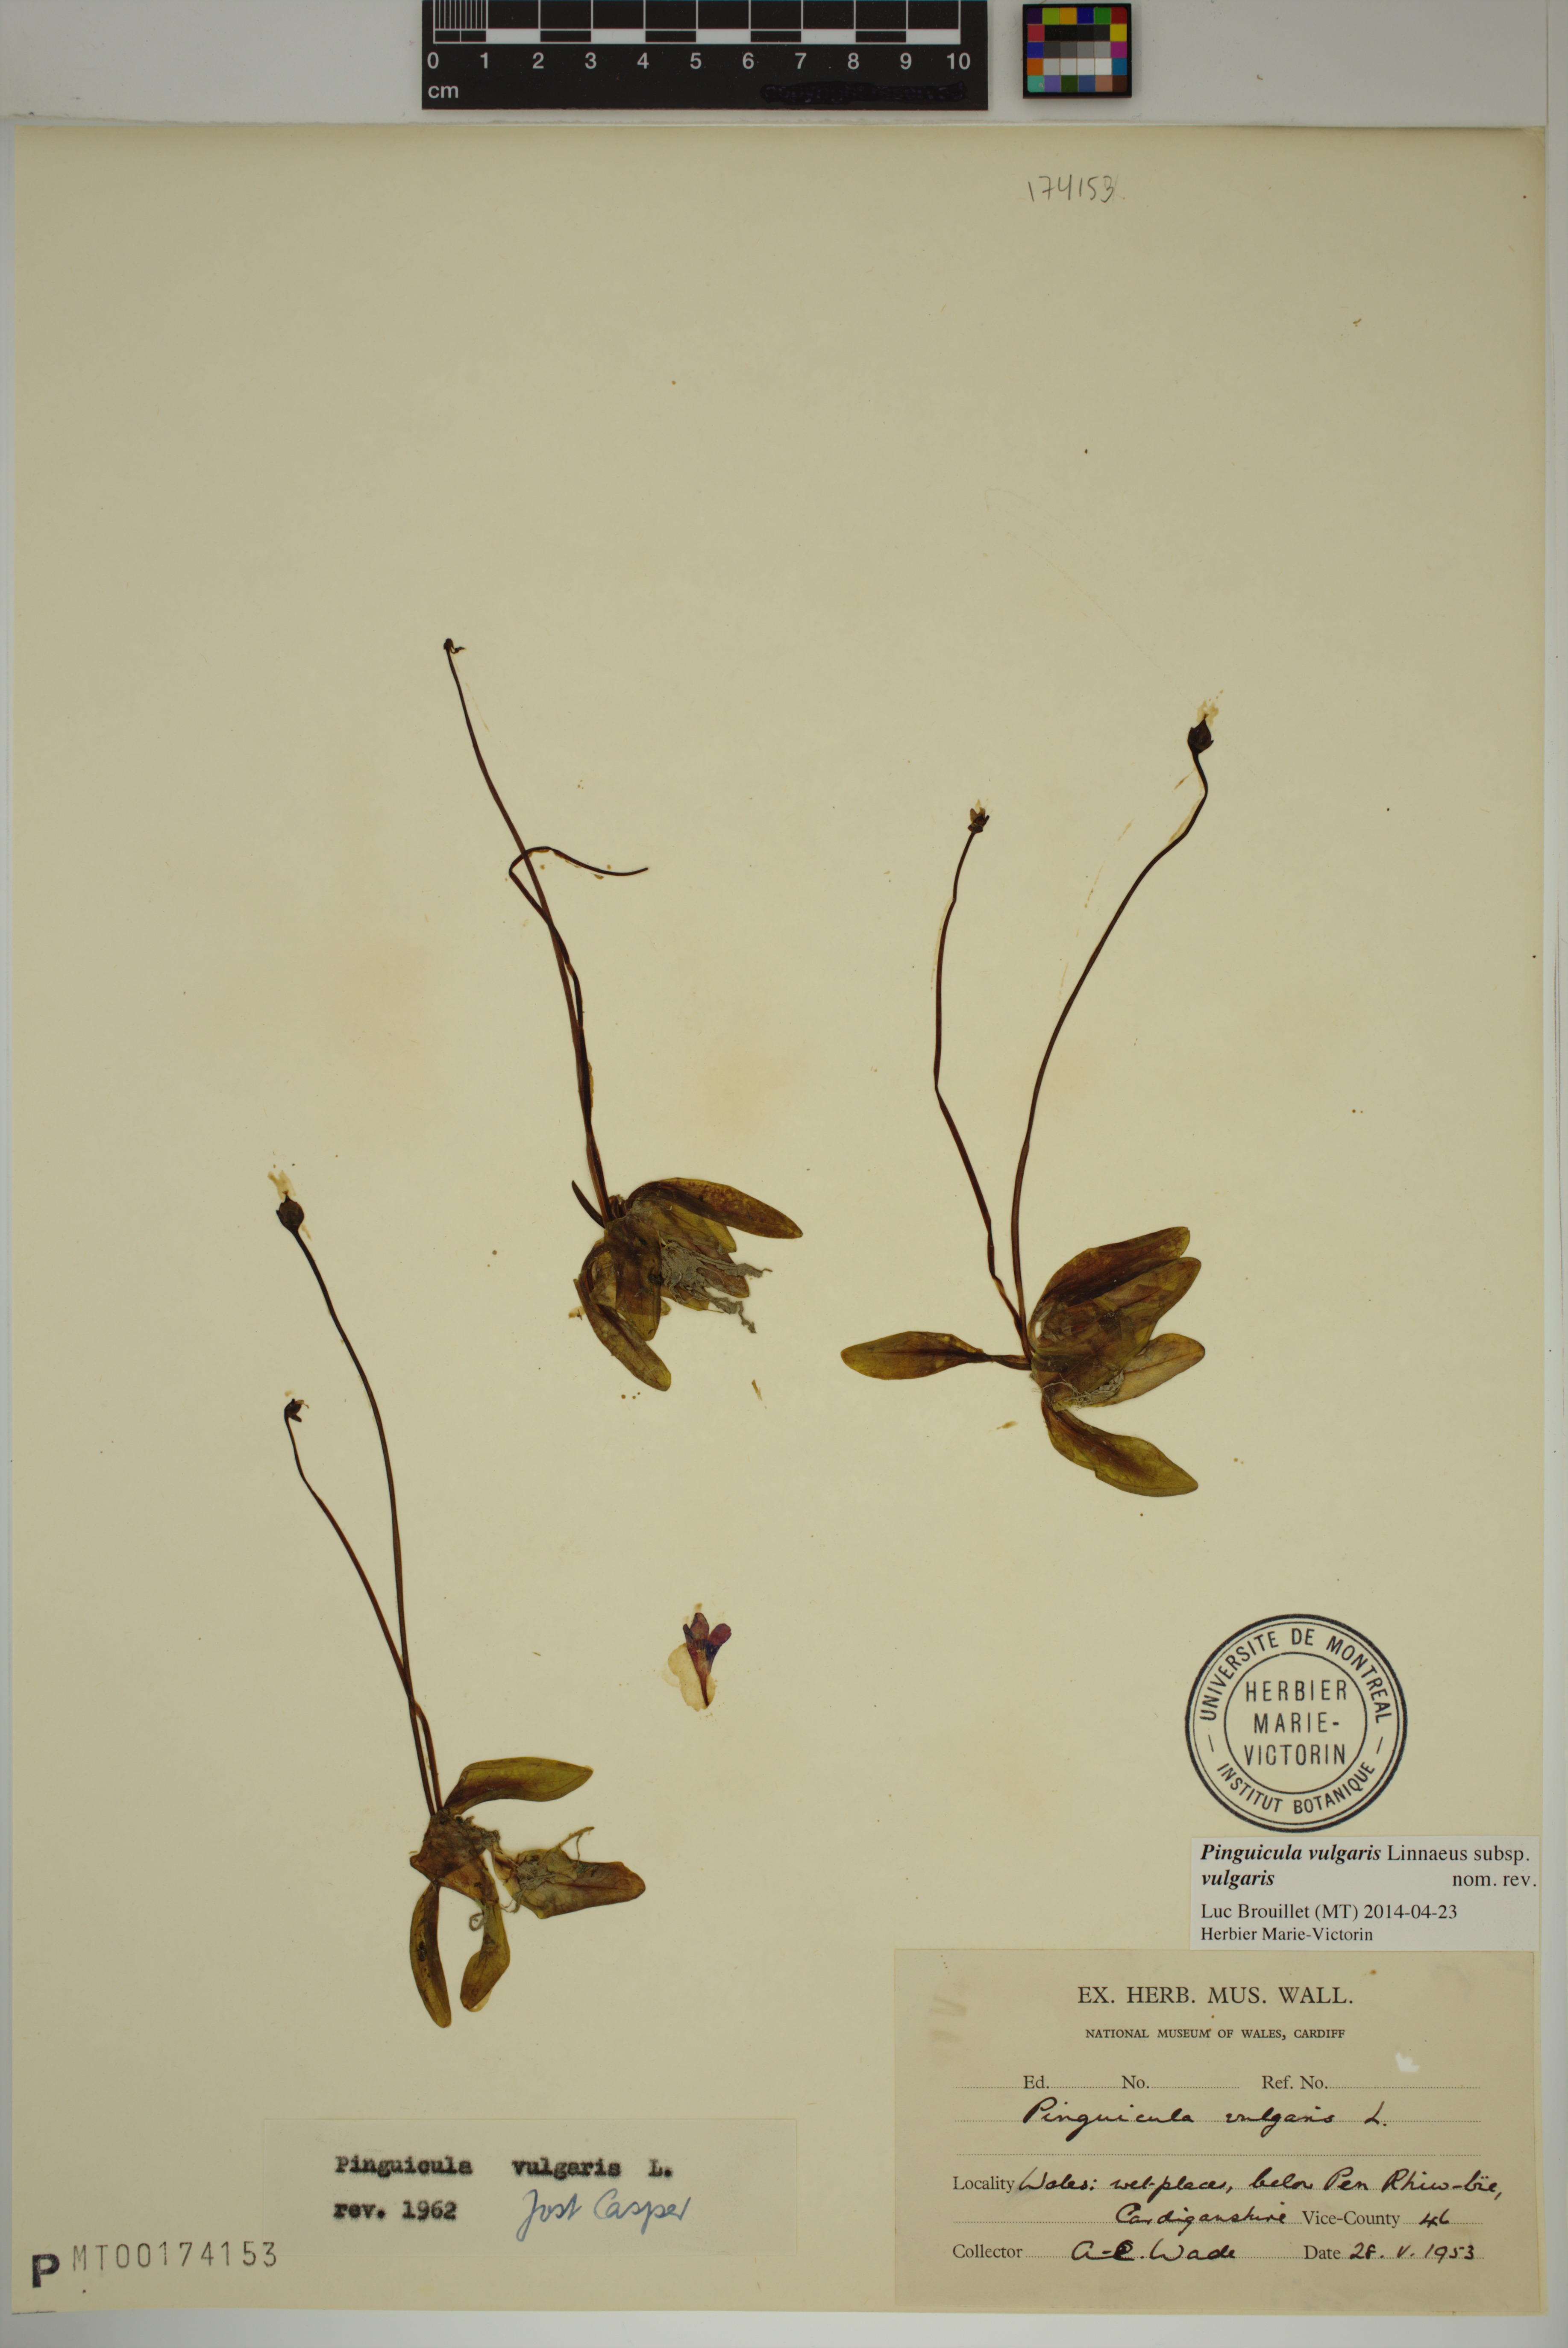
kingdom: Plantae
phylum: Tracheophyta
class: Magnoliopsida
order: Lamiales
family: Lentibulariaceae
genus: Pinguicula
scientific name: Pinguicula vulgaris
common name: Common butterwort
